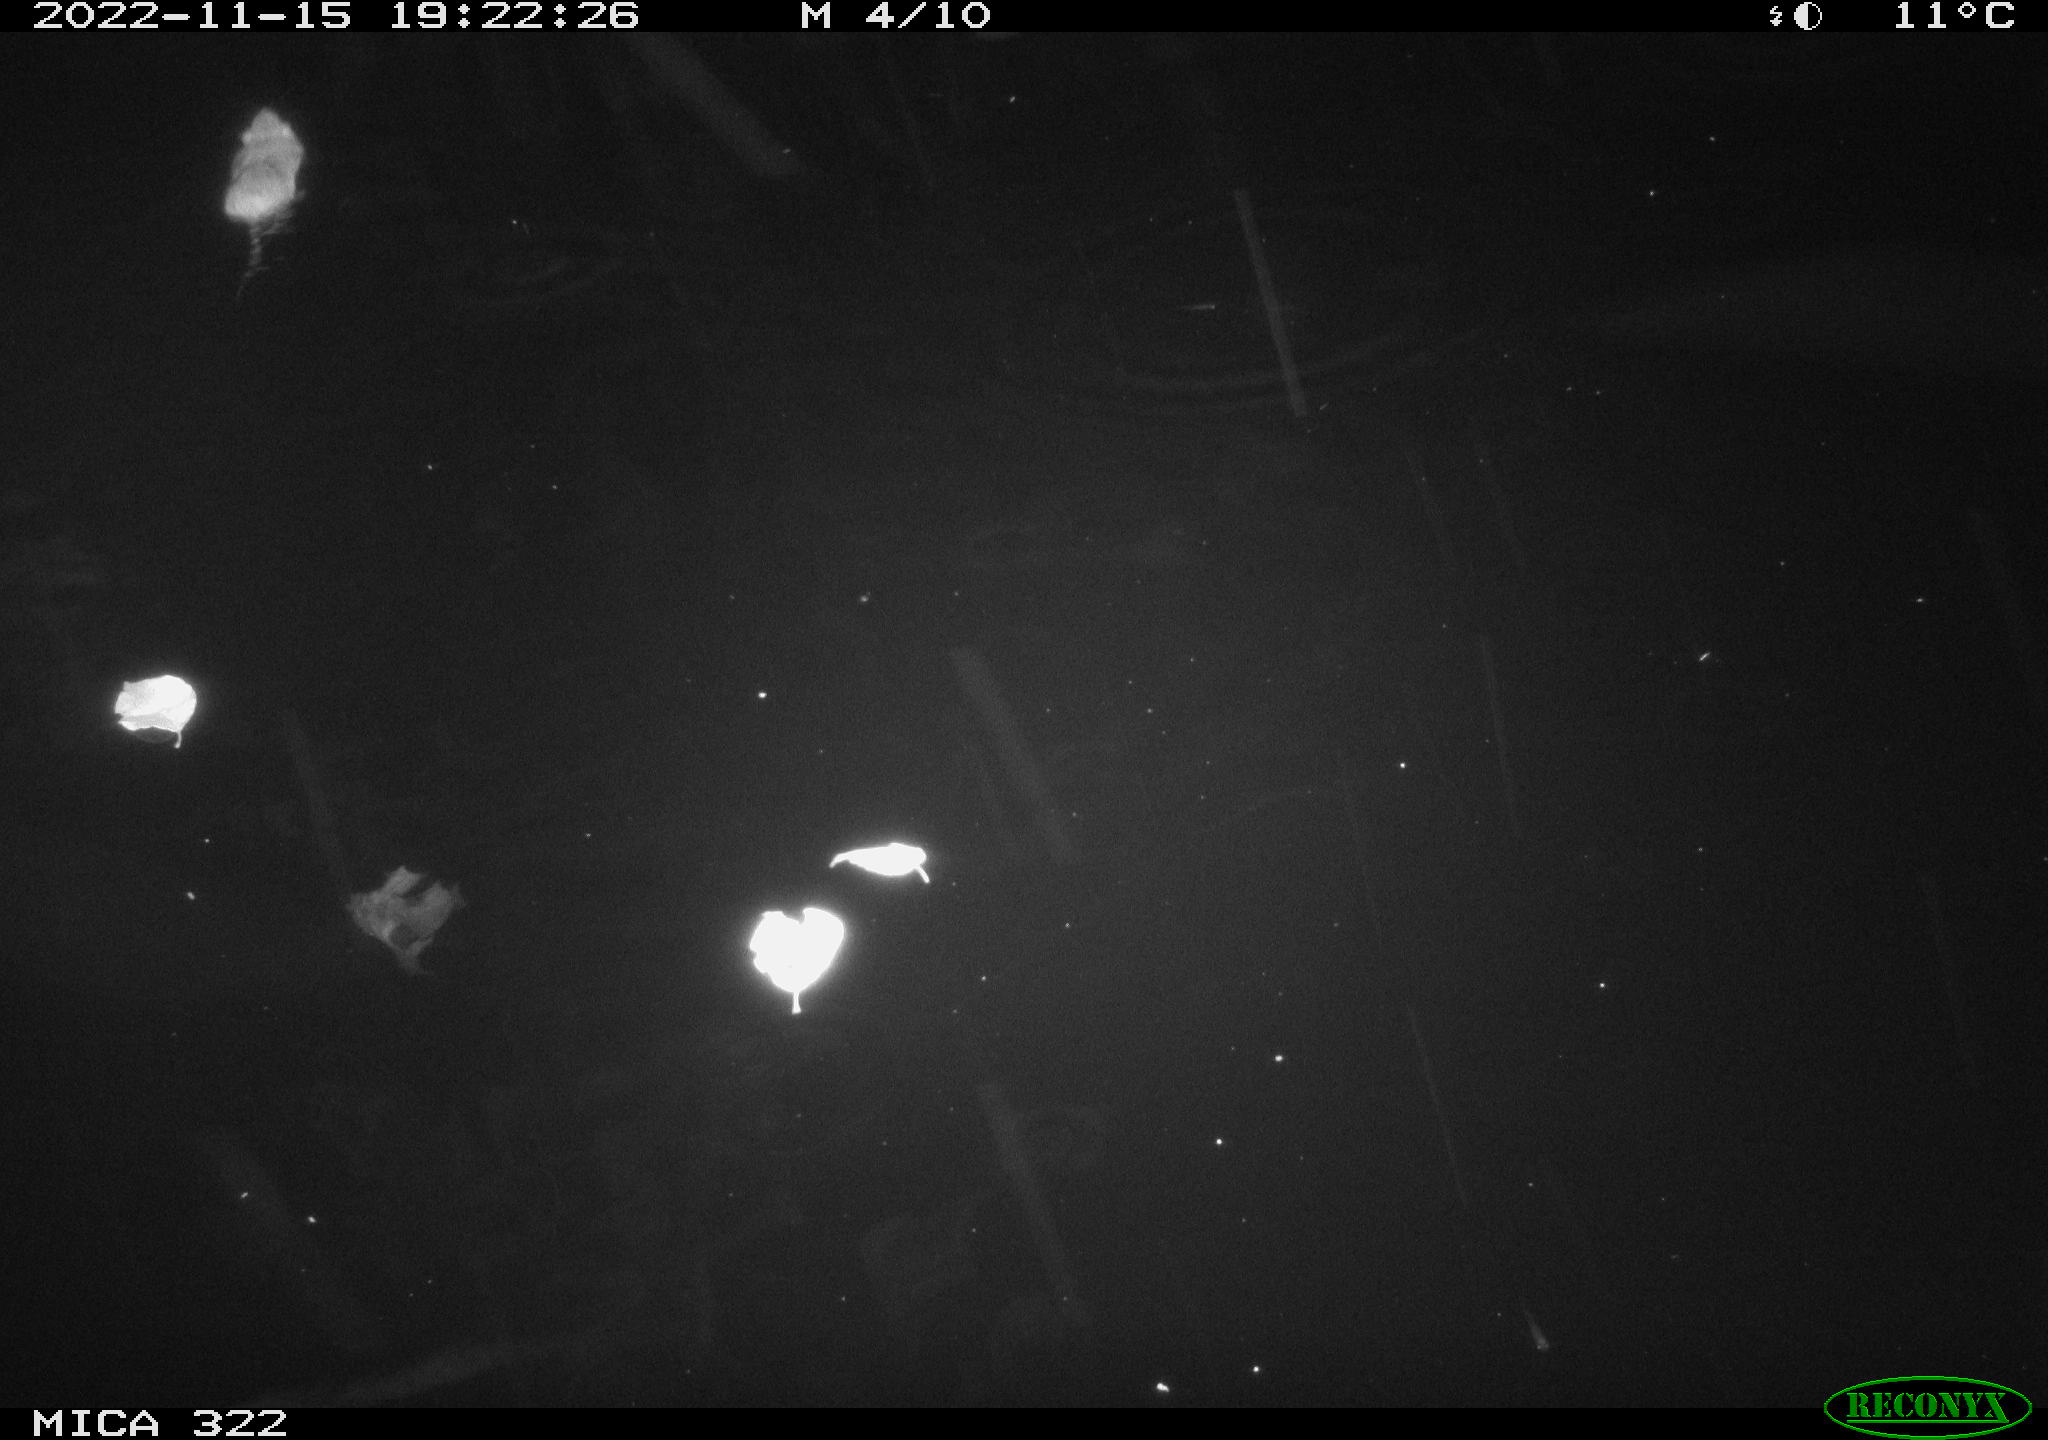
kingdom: Animalia
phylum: Chordata
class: Mammalia
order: Rodentia
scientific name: Rodentia
